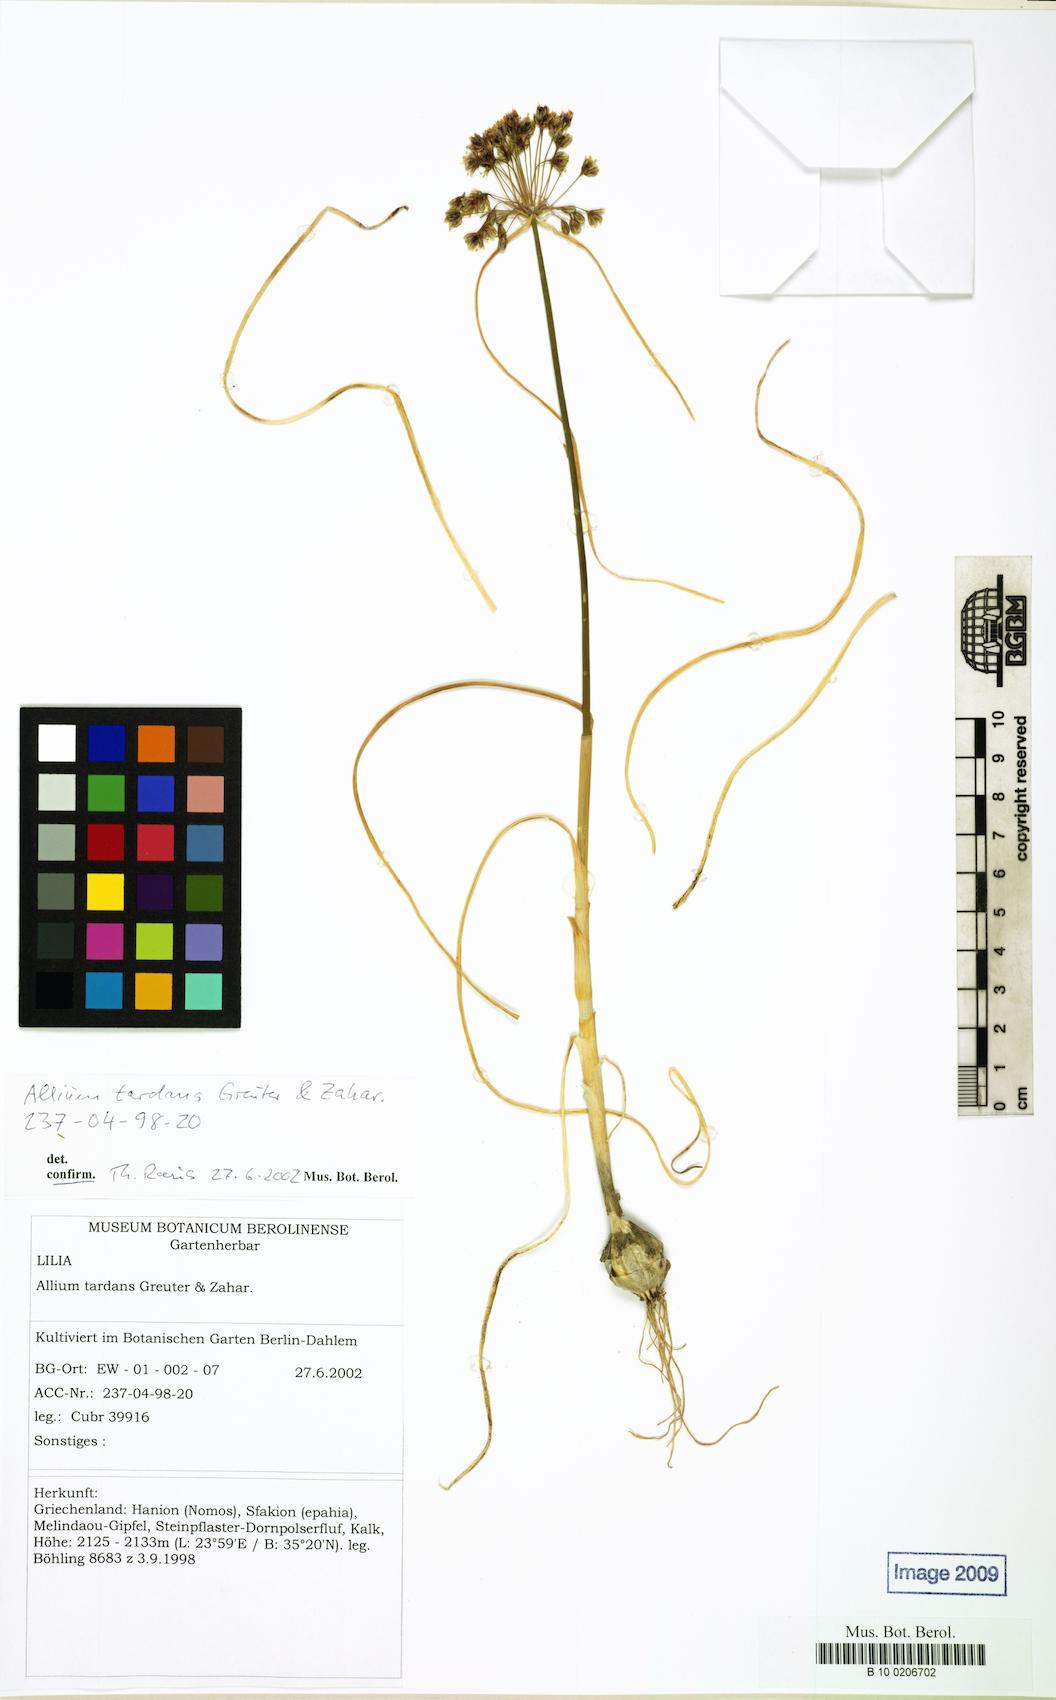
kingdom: Plantae
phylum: Tracheophyta
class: Liliopsida
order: Asparagales
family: Amaryllidaceae
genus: Allium
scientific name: Allium tardans
